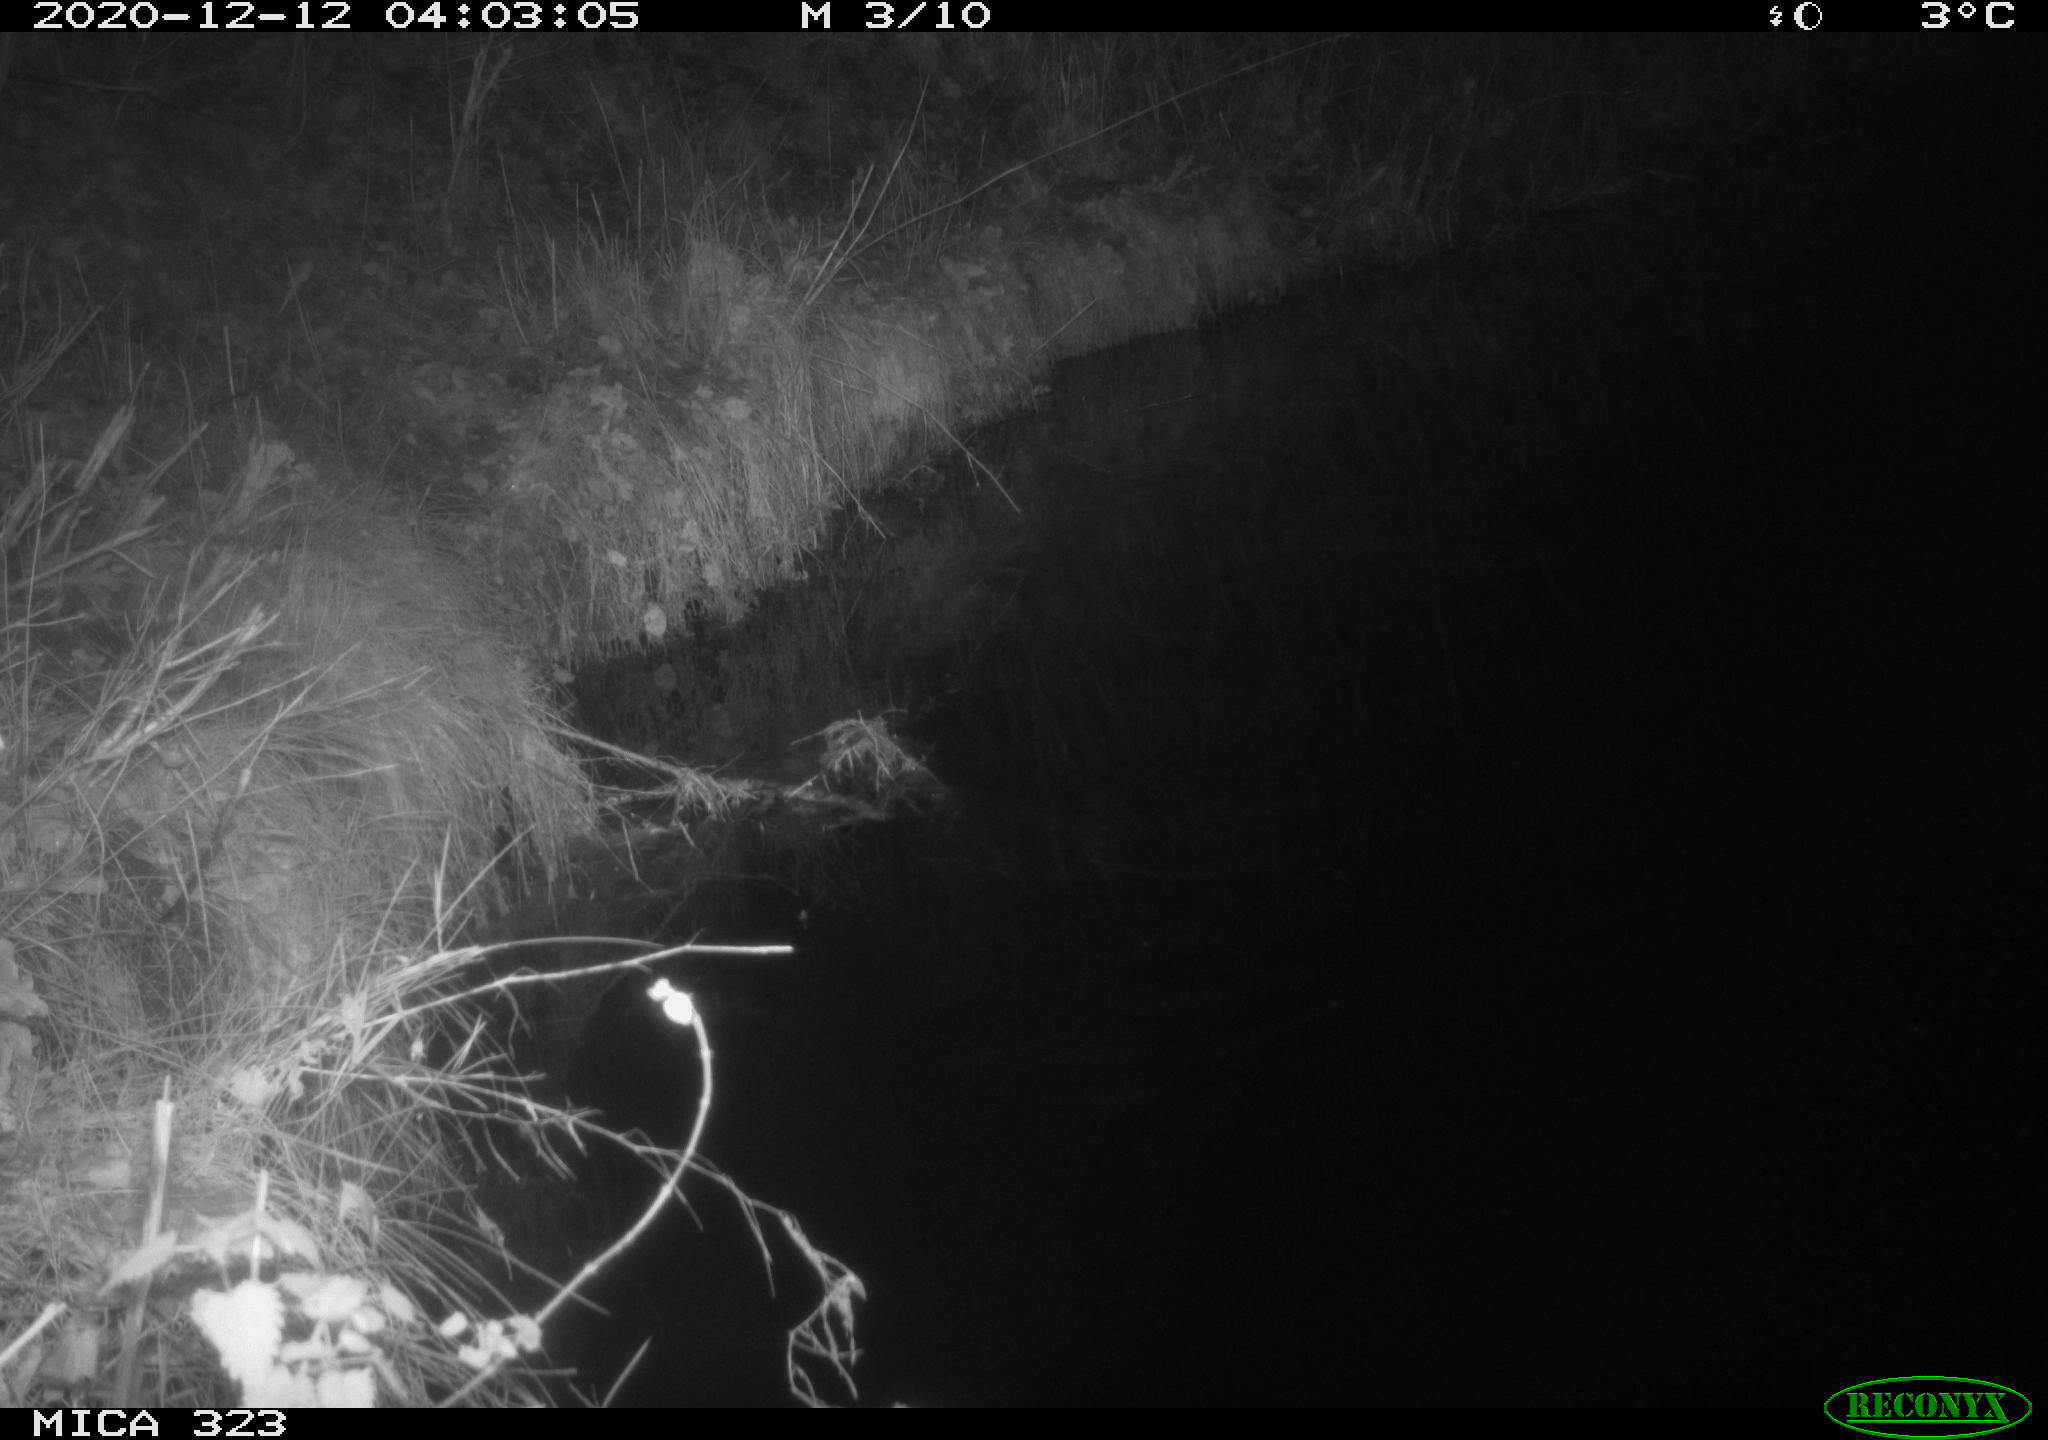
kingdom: Animalia
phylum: Chordata
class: Mammalia
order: Rodentia
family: Myocastoridae
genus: Myocastor
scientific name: Myocastor coypus
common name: Coypu
